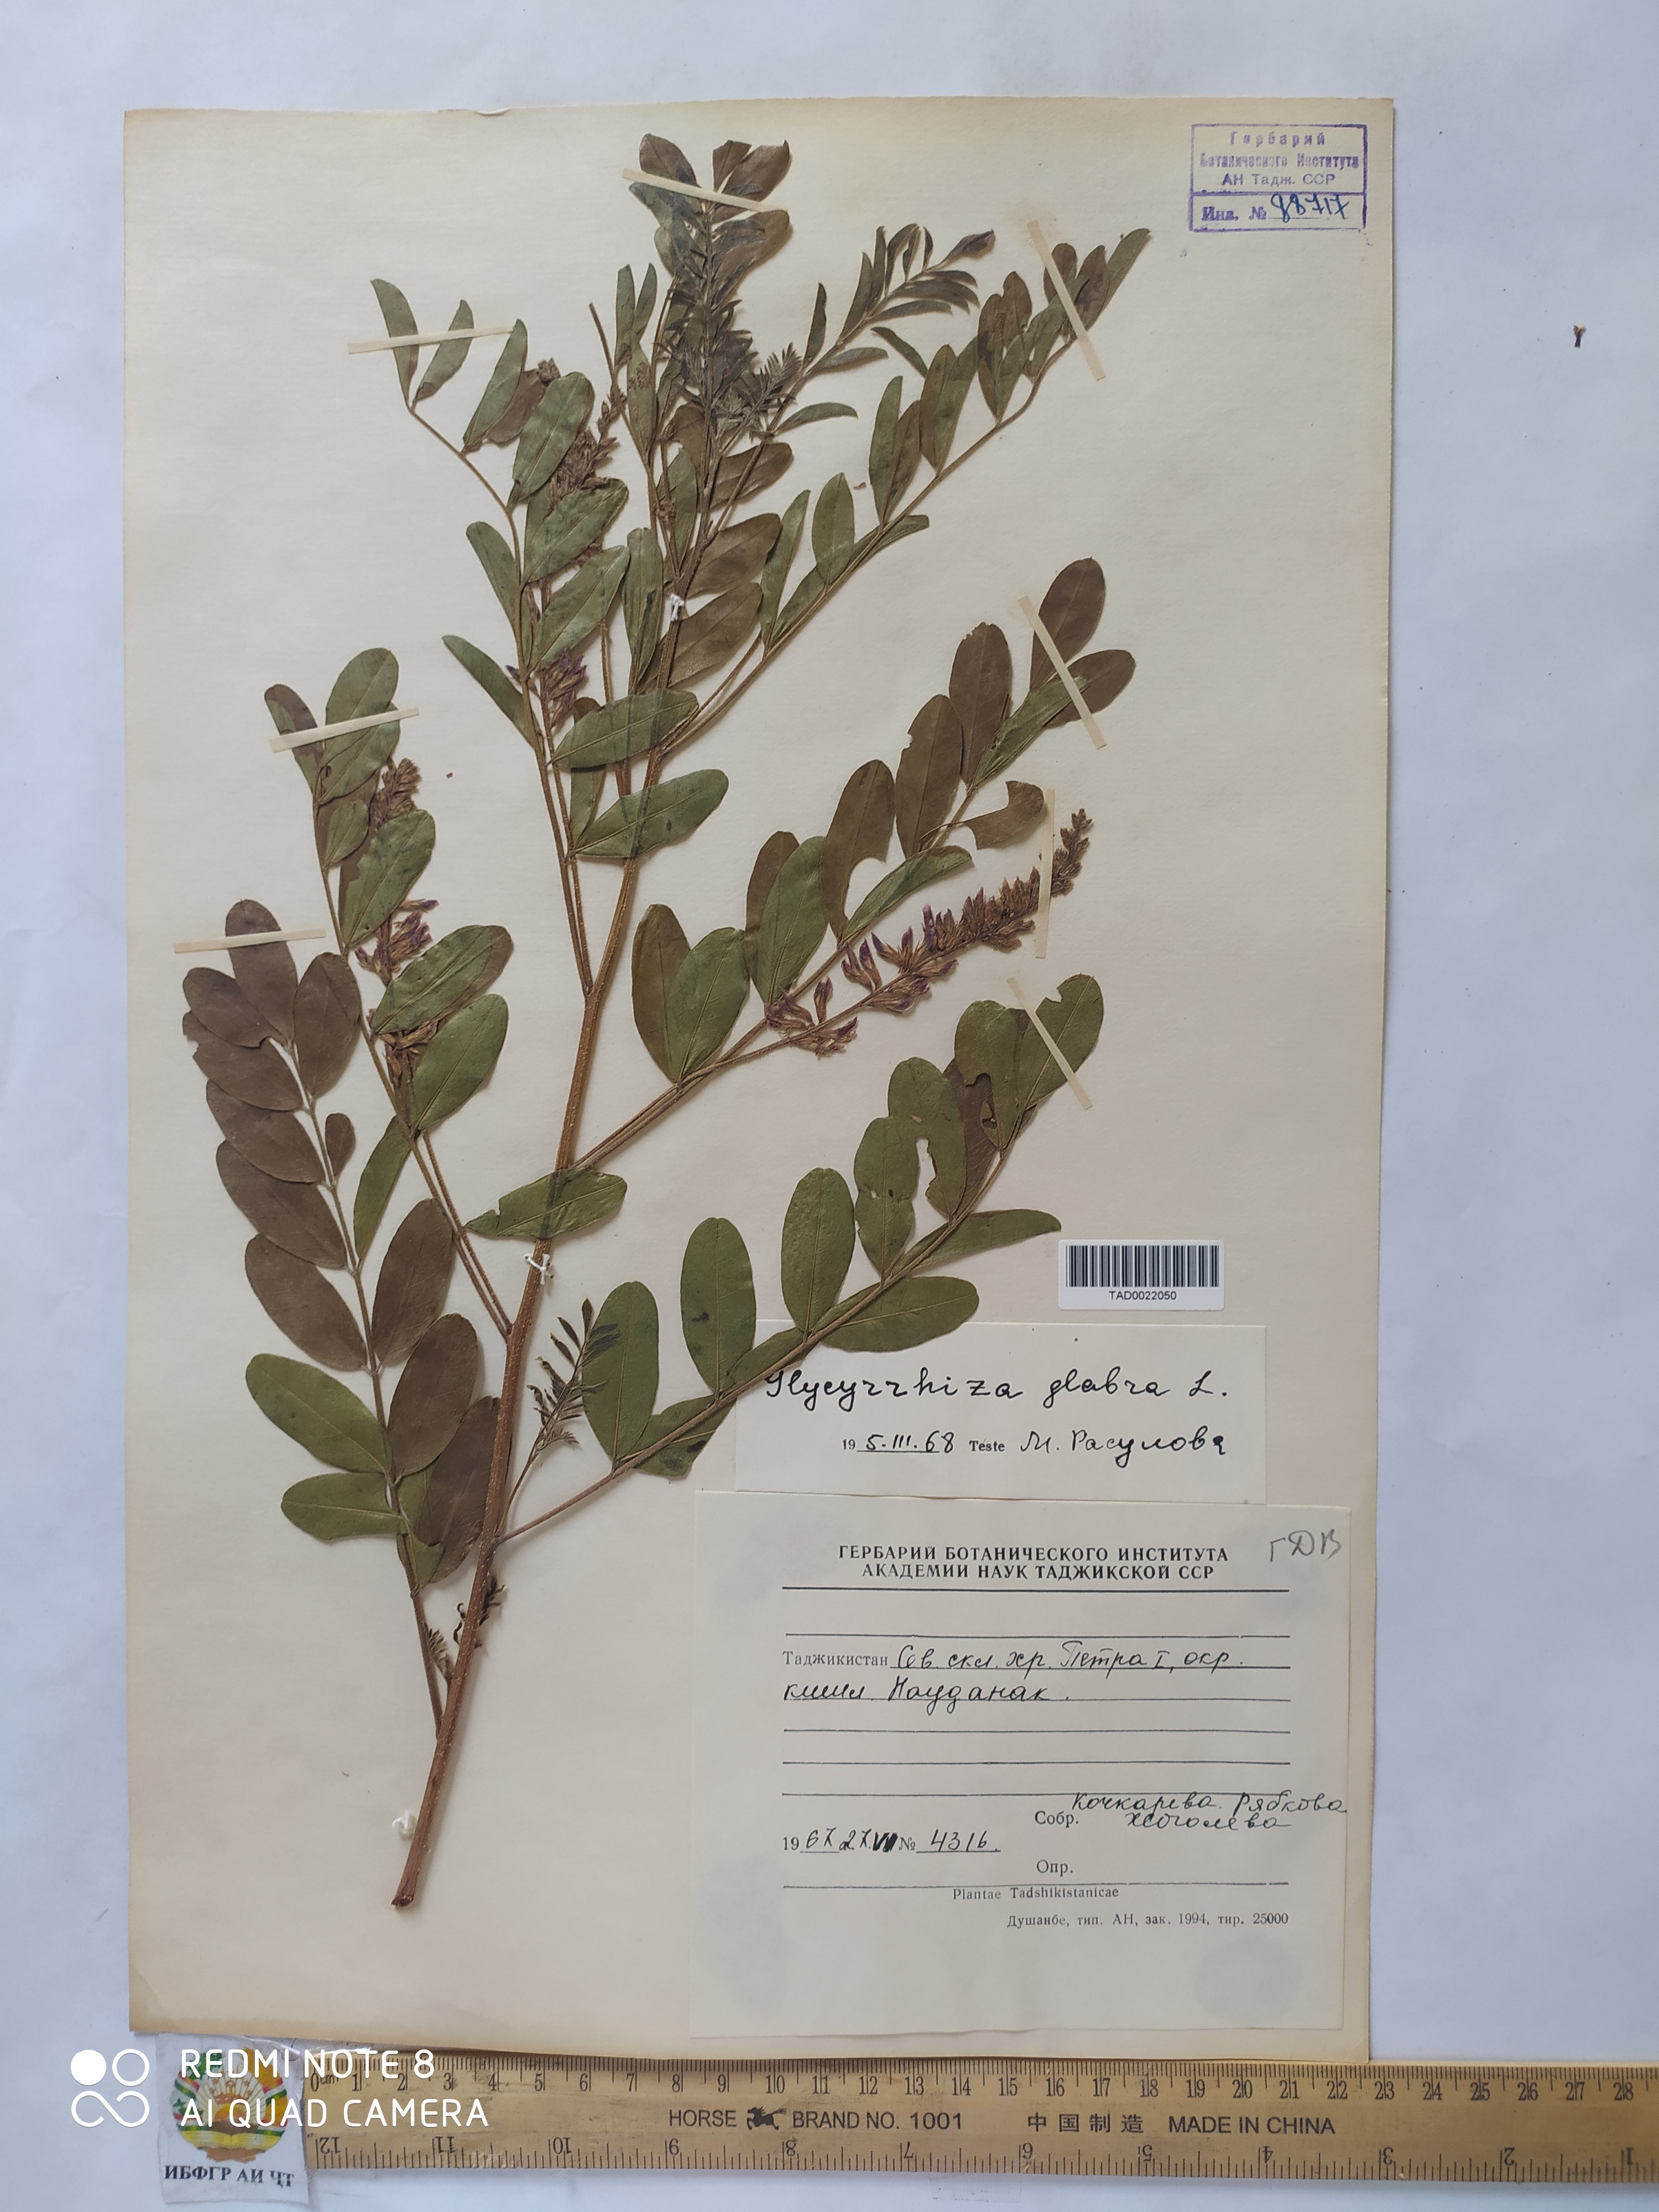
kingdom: Plantae
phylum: Tracheophyta
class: Magnoliopsida
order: Fabales
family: Fabaceae
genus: Glycyrrhiza
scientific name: Glycyrrhiza glabra
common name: Liquorice
